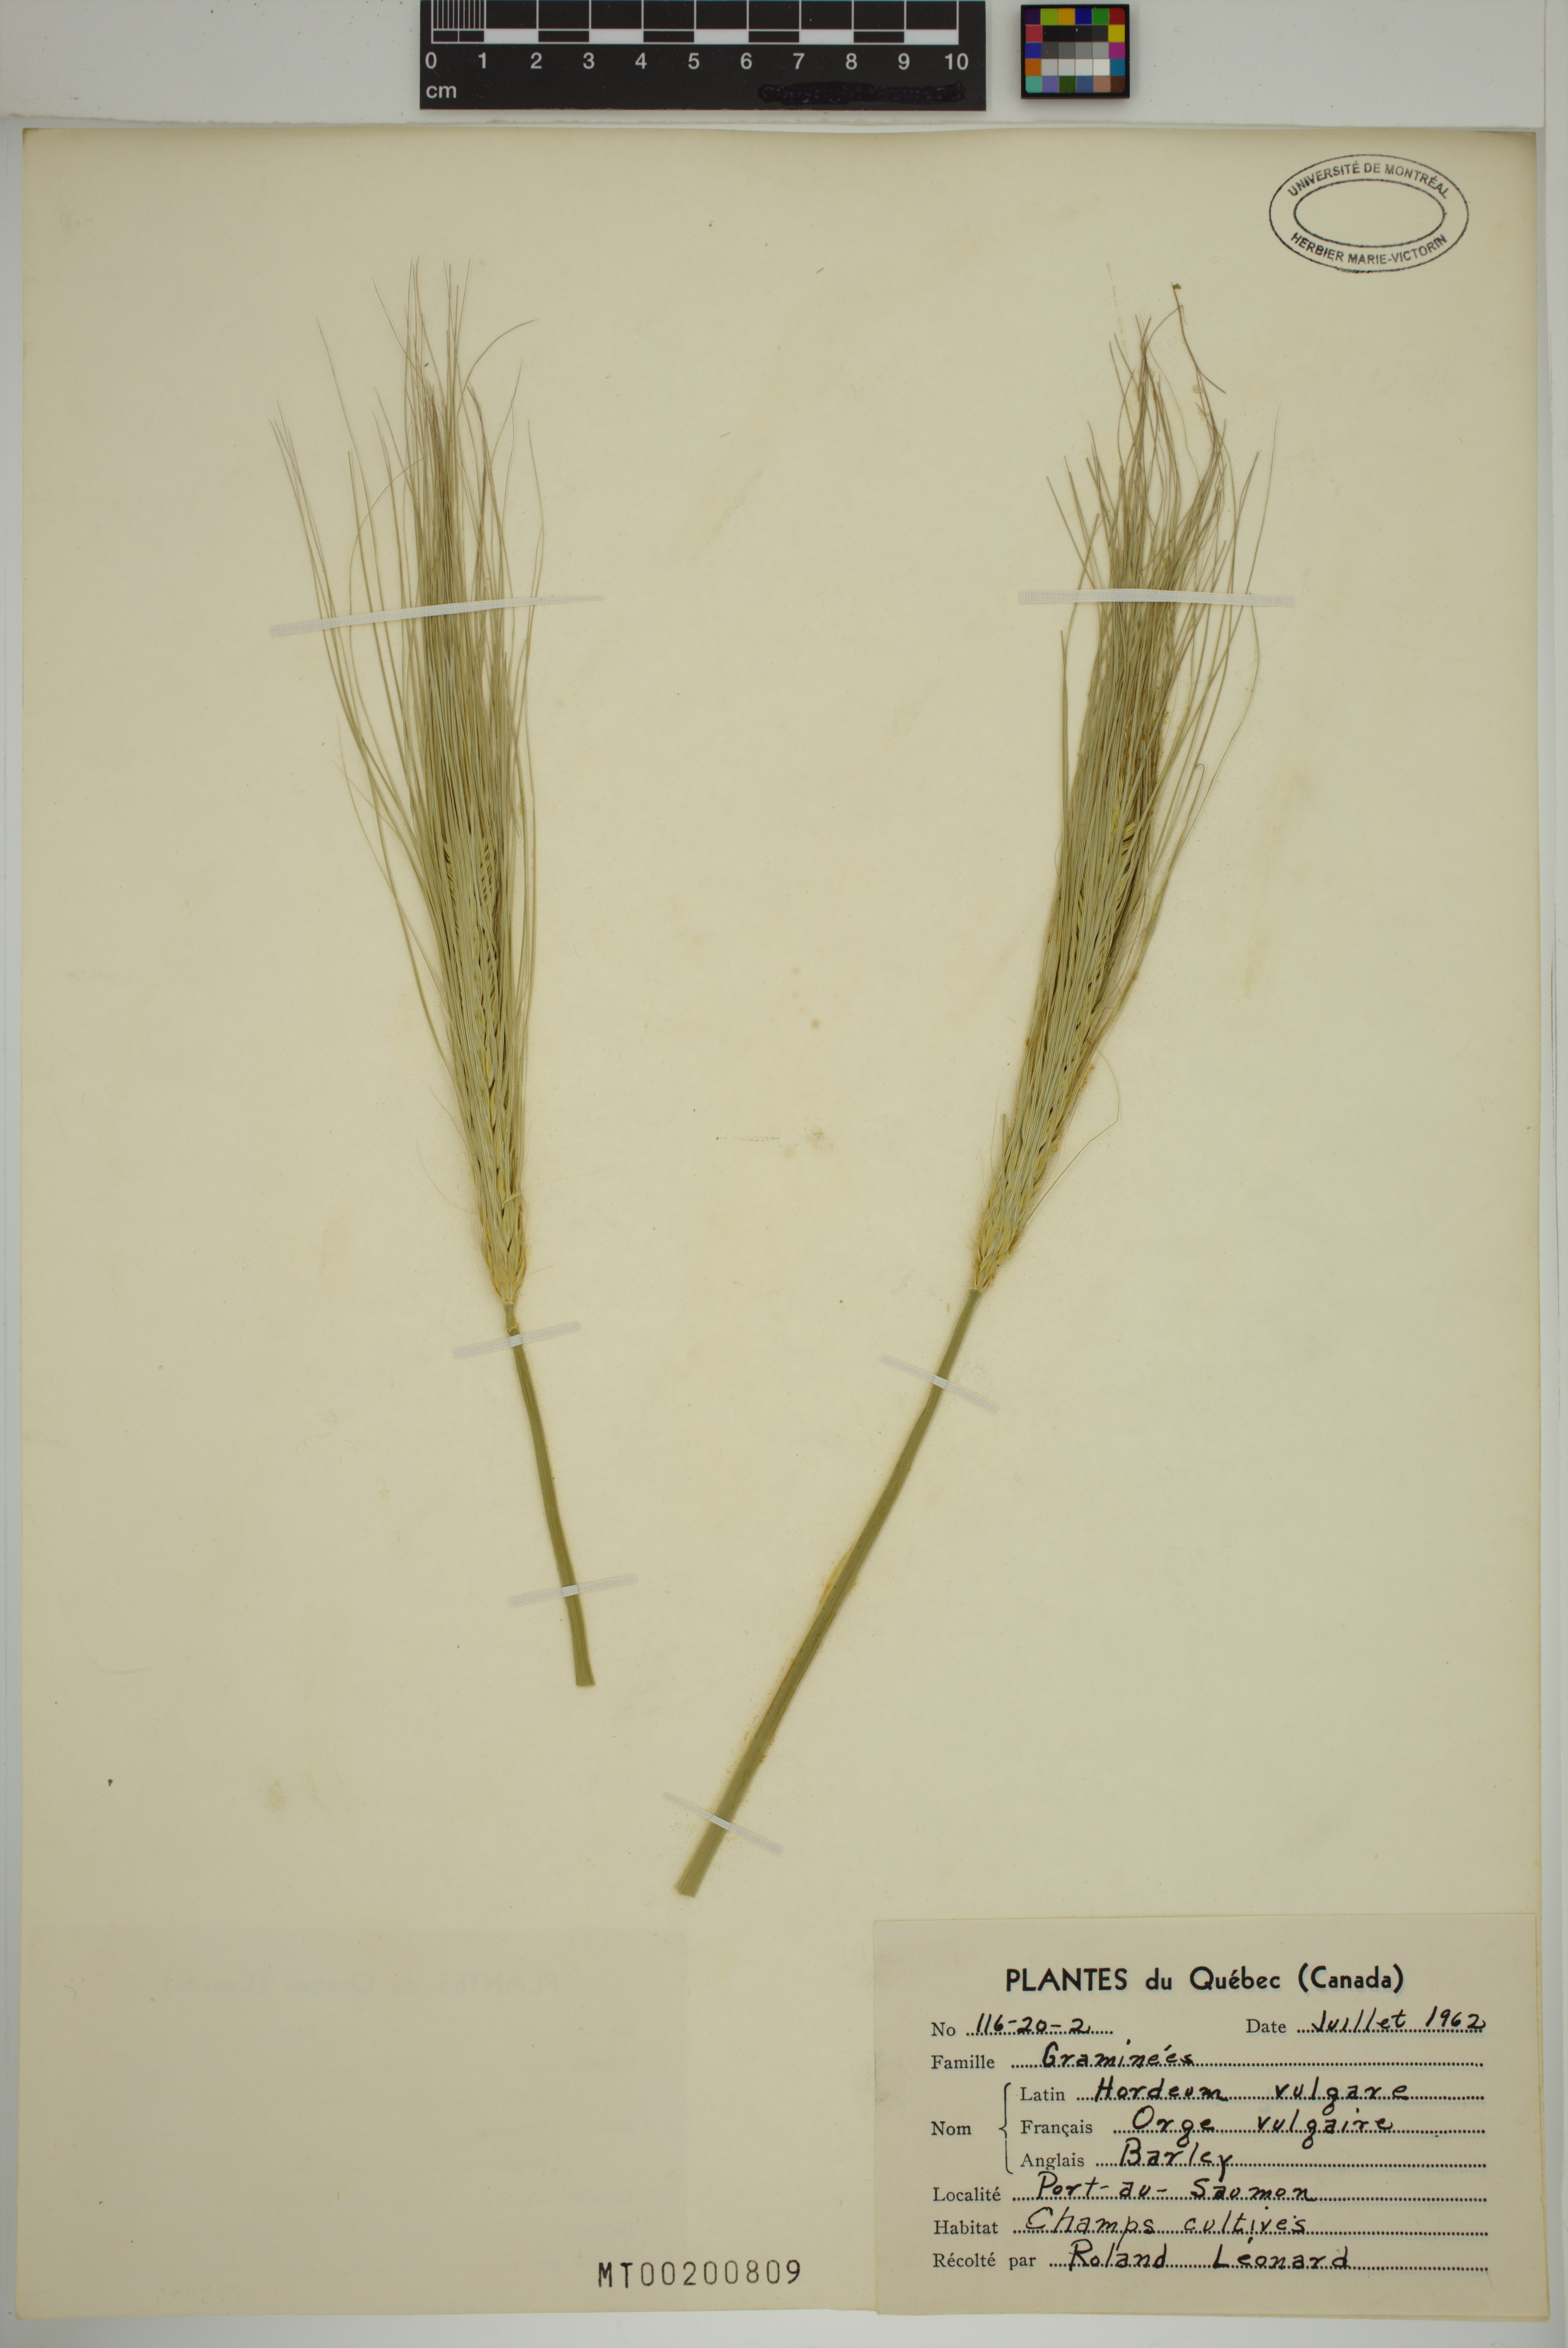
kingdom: Plantae
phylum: Tracheophyta
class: Liliopsida
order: Poales
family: Poaceae
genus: Hordeum
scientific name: Hordeum vulgare
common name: Common barley
